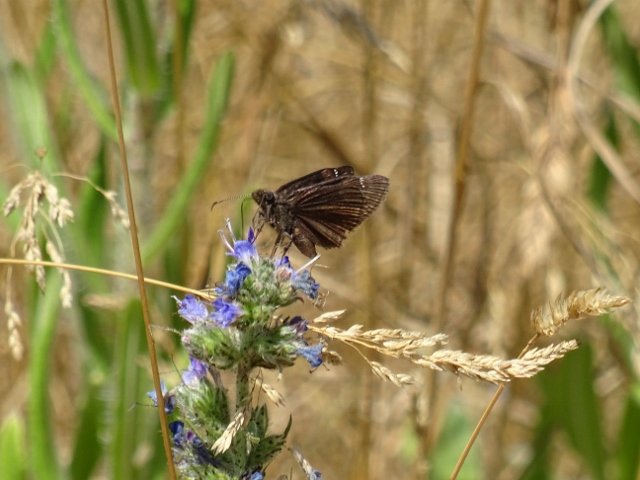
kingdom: Animalia
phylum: Arthropoda
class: Insecta
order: Lepidoptera
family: Hesperiidae
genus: Gesta
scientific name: Gesta
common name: Wild Indigo Duskywing
